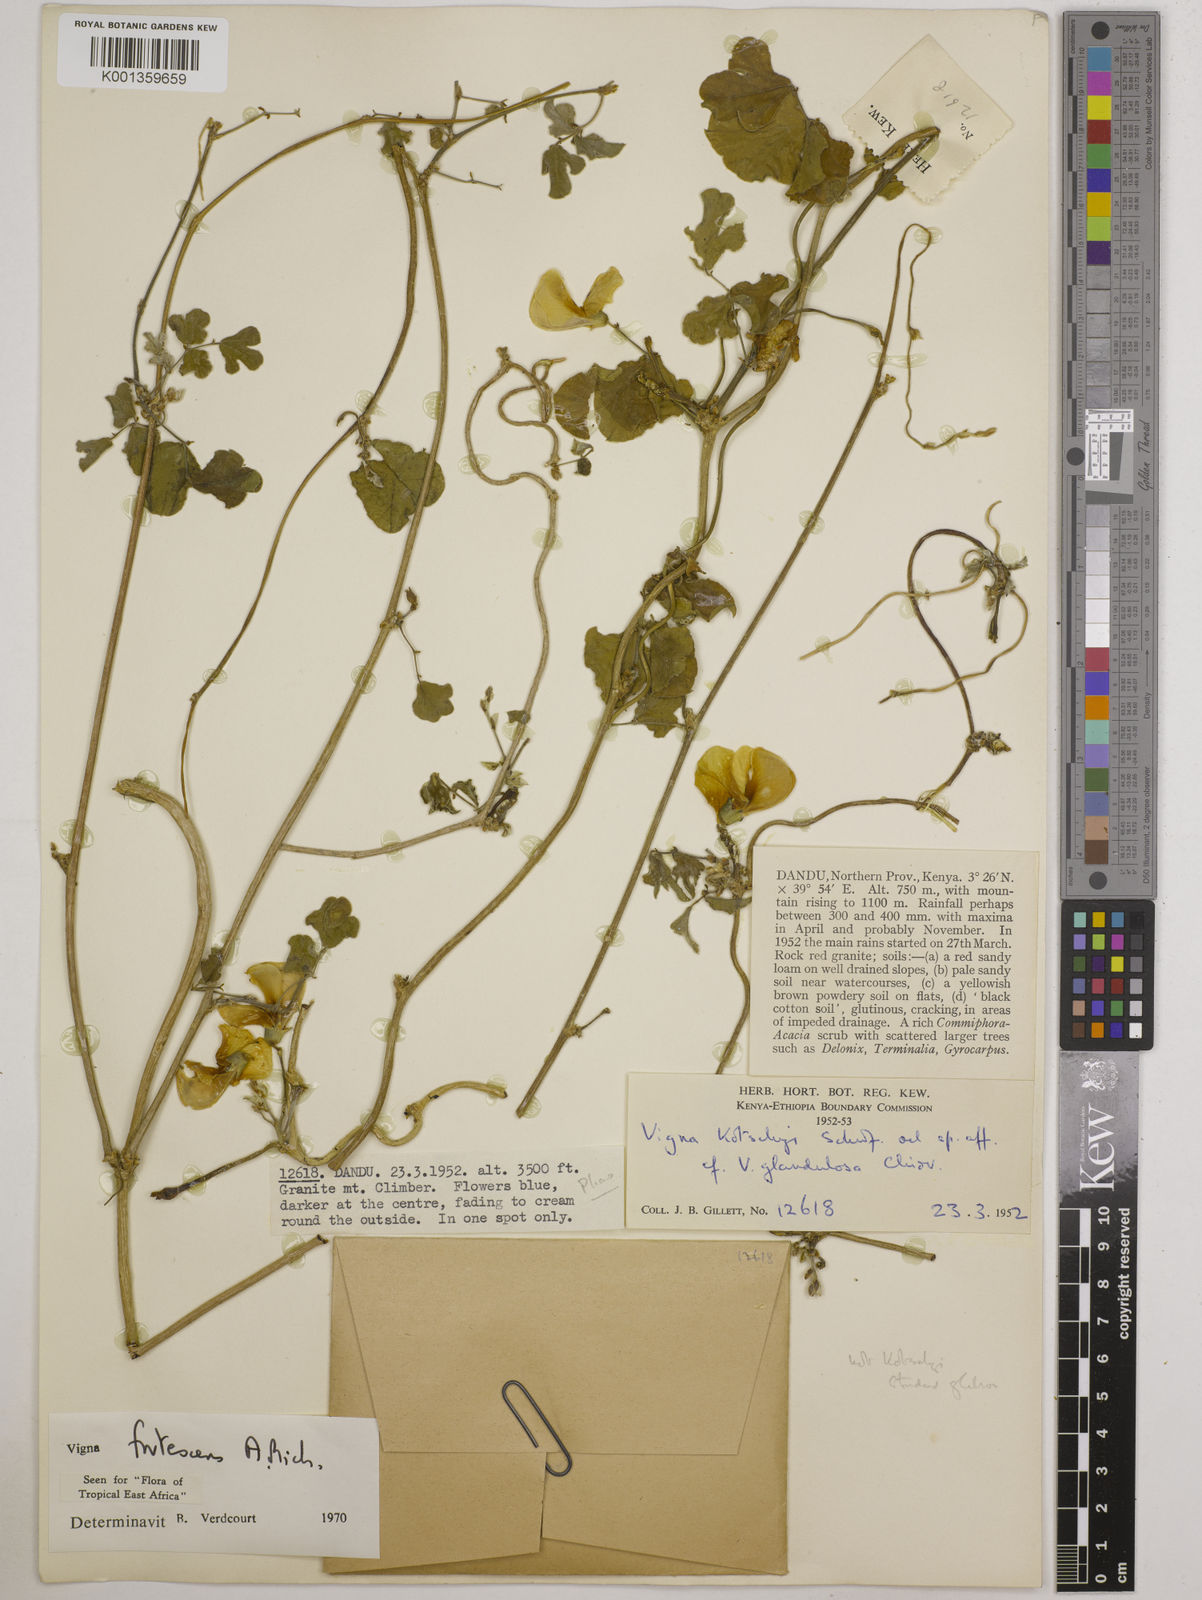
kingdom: Plantae
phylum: Tracheophyta
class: Magnoliopsida
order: Fabales
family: Fabaceae
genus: Vigna
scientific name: Vigna frutescens
